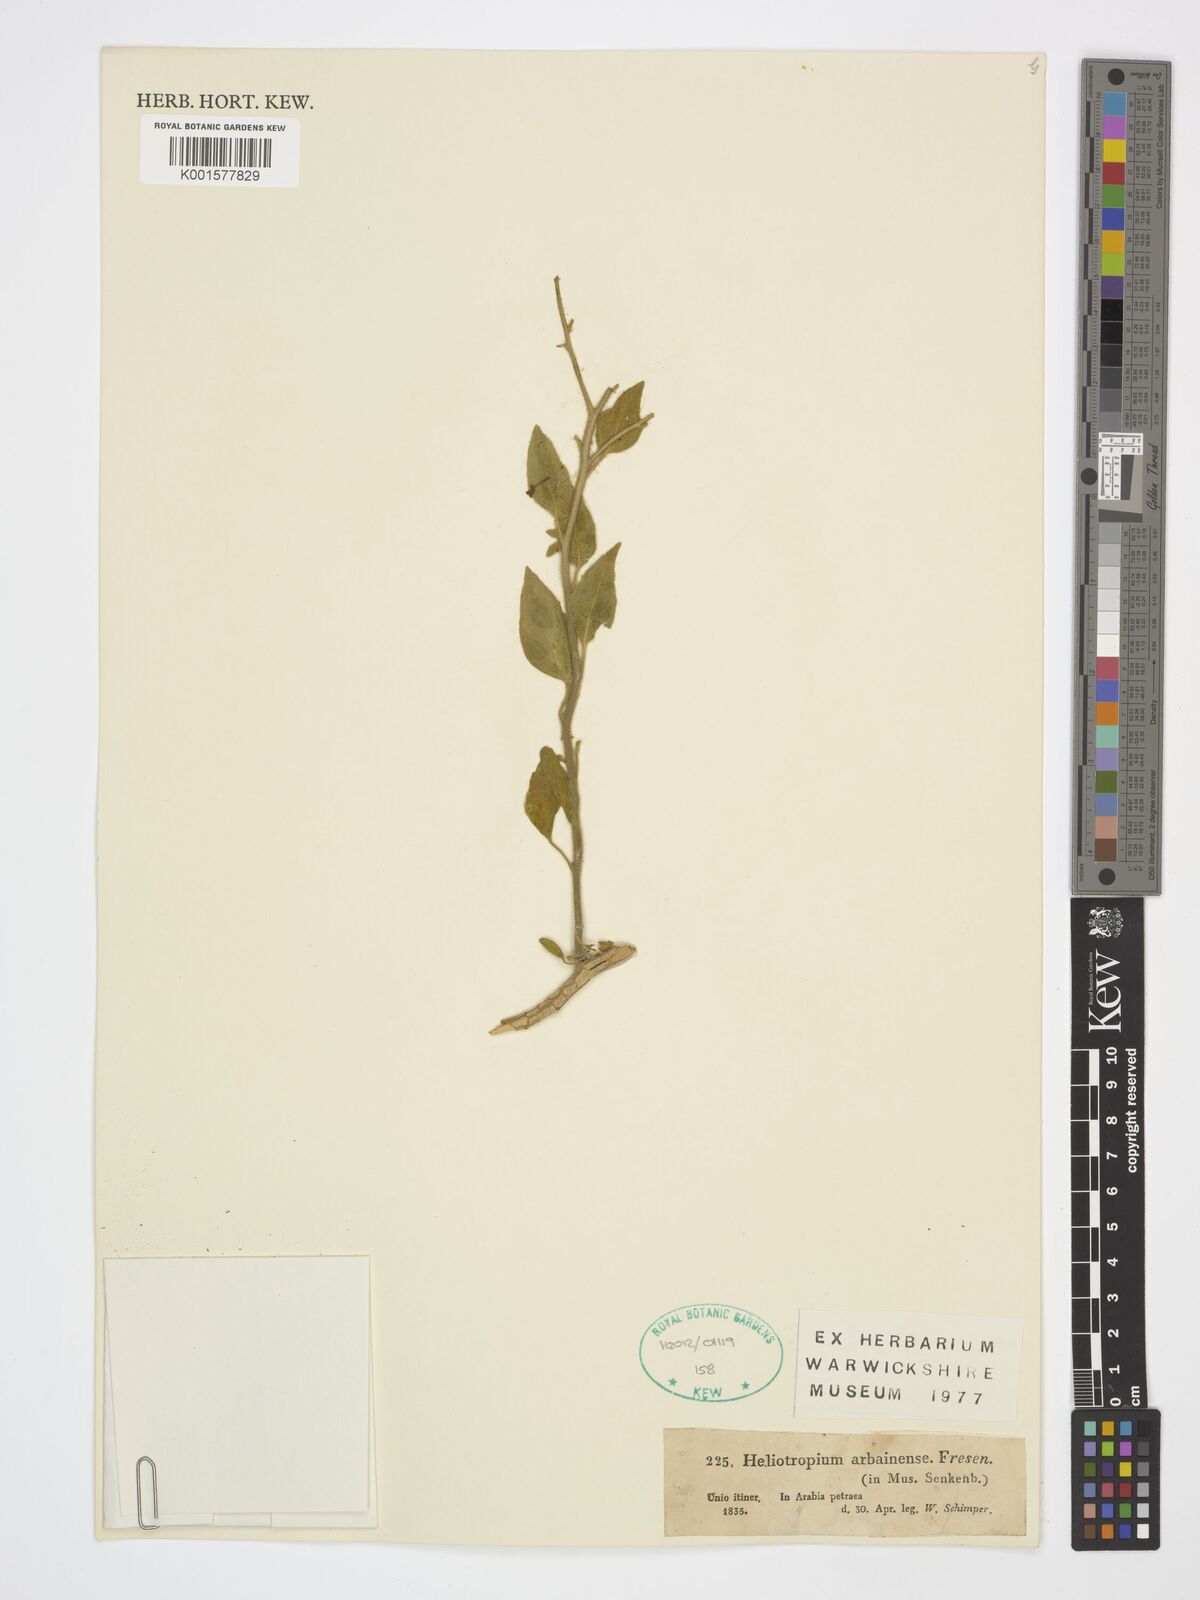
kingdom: Plantae
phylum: Tracheophyta
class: Magnoliopsida
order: Boraginales
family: Heliotropiaceae
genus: Heliotropium
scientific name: Heliotropium arbainense
